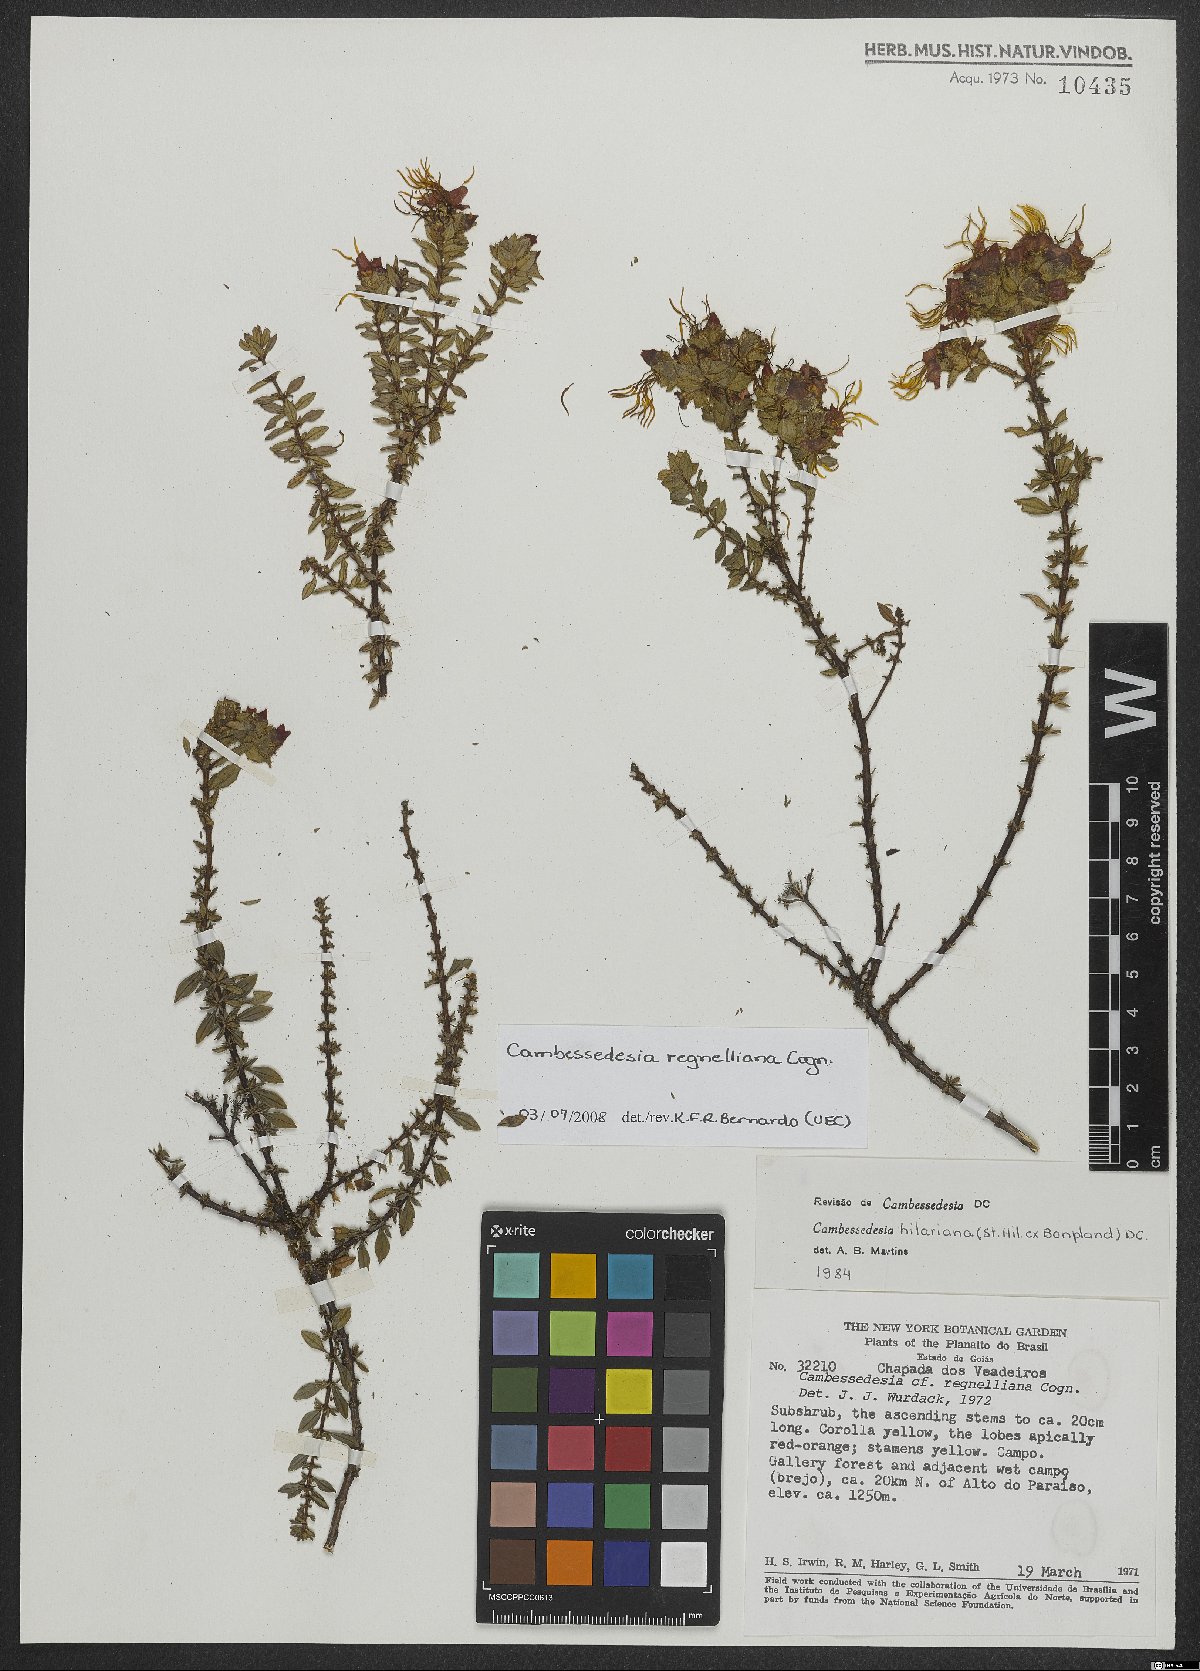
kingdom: Plantae
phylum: Tracheophyta
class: Magnoliopsida
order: Myrtales
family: Melastomataceae
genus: Cambessedesia
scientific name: Cambessedesia hilariana
